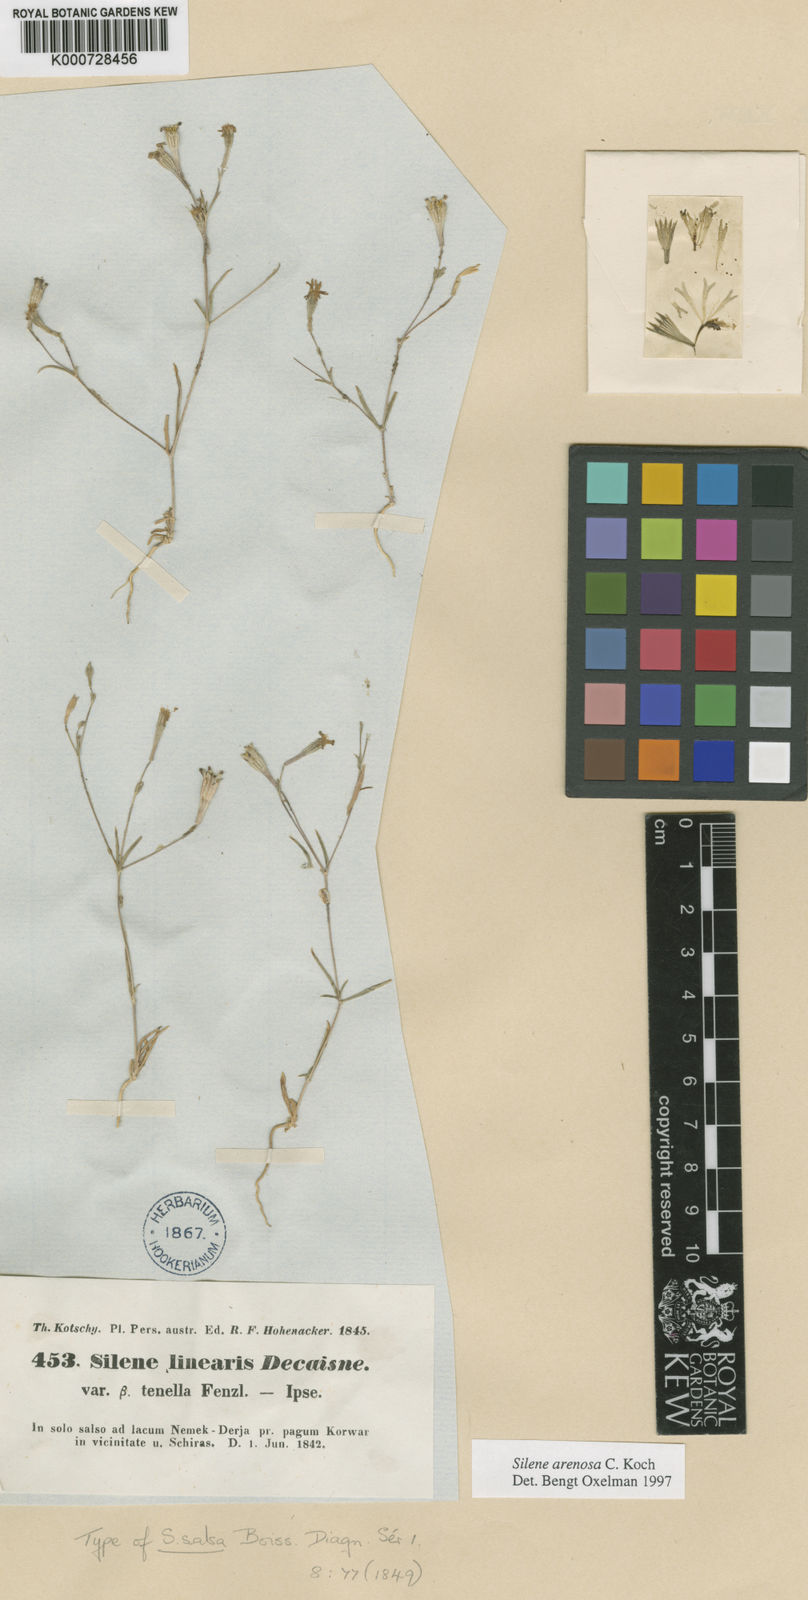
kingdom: Plantae
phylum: Tracheophyta
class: Magnoliopsida
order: Caryophyllales
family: Caryophyllaceae
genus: Silene
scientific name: Silene arenosa
